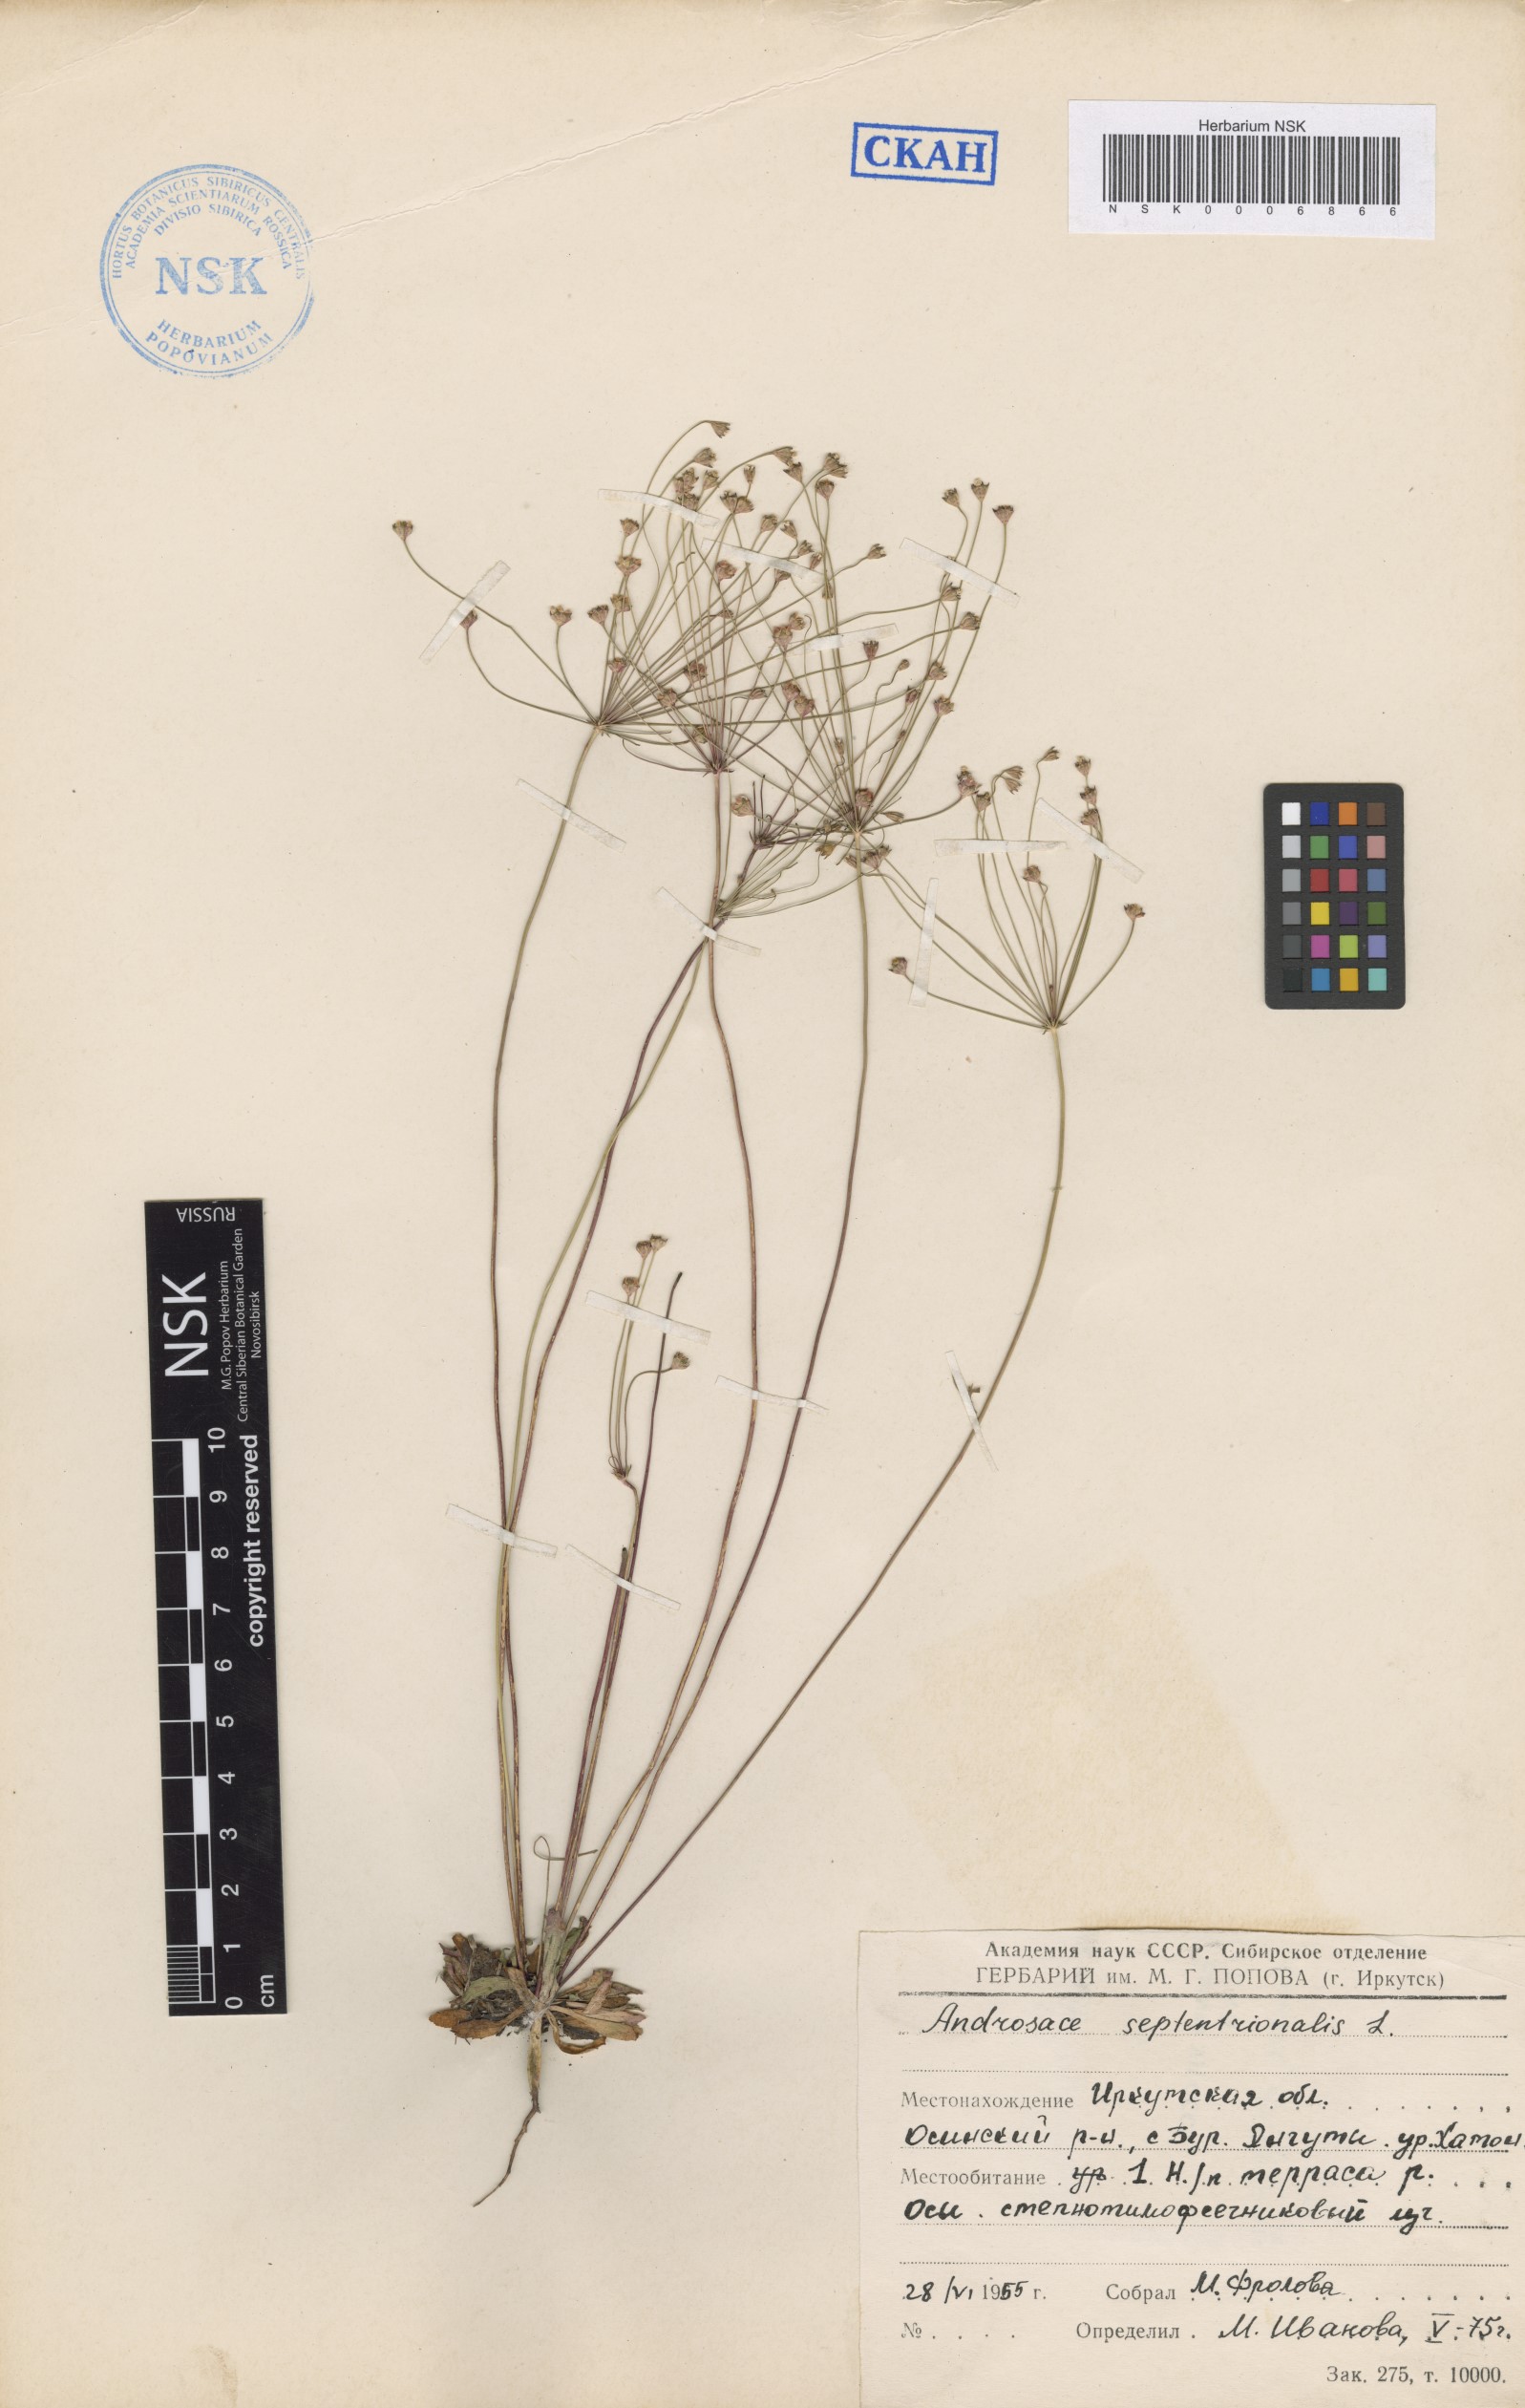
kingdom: Plantae
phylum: Tracheophyta
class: Magnoliopsida
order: Ericales
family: Primulaceae
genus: Androsace
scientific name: Androsace septentrionalis
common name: Hairy northern fairy-candelabra
